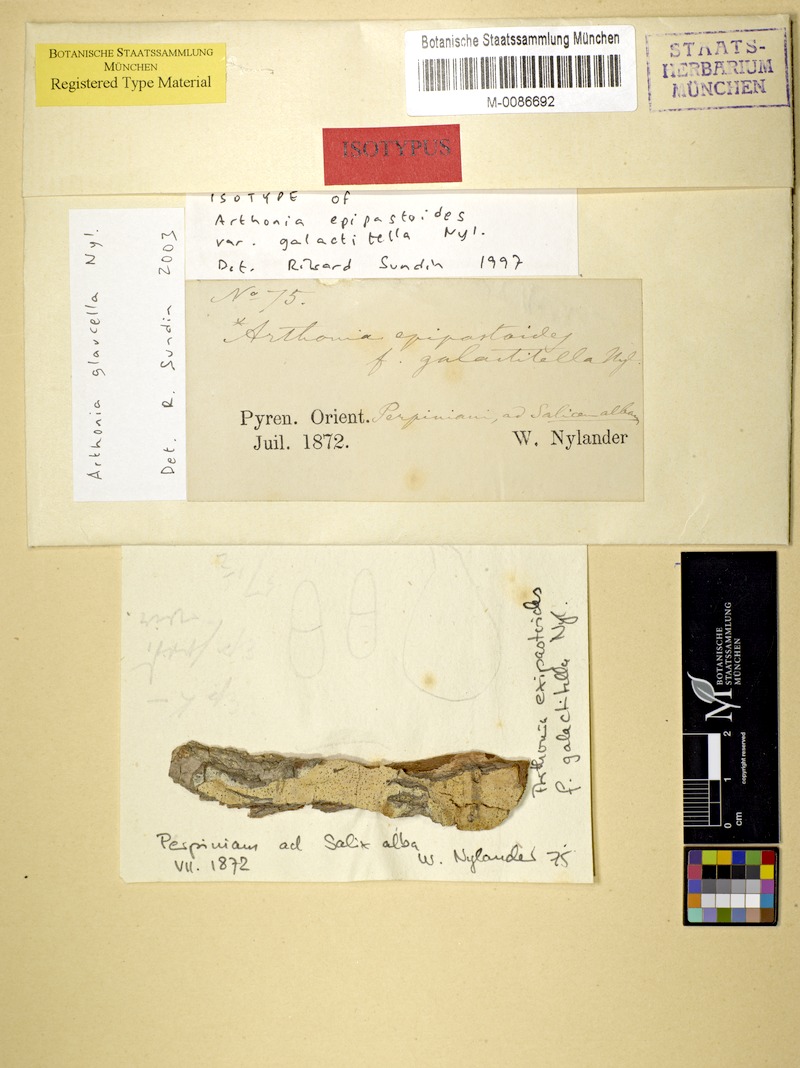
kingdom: Fungi
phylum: Ascomycota
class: Arthoniomycetes
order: Arthoniales
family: Arthoniaceae
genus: Arthonia
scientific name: Arthonia glaucella
